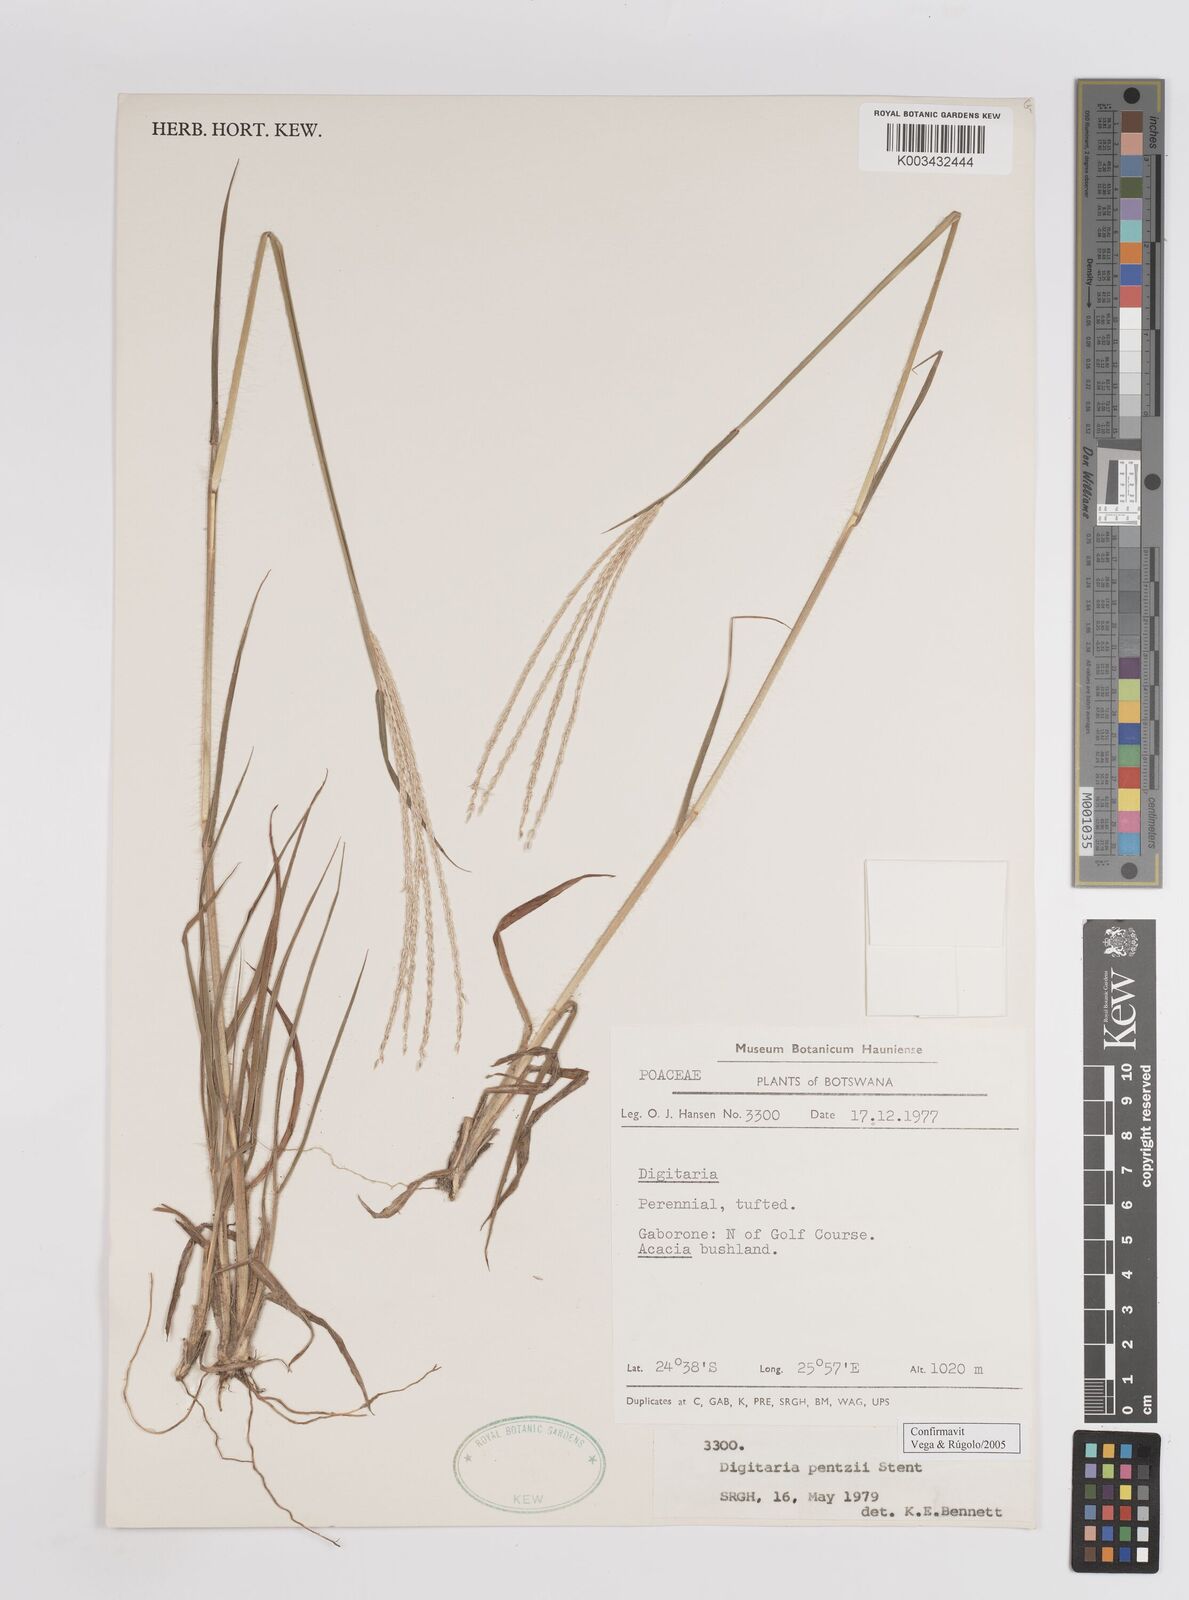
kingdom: Plantae
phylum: Tracheophyta
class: Liliopsida
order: Poales
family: Poaceae
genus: Digitaria
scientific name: Digitaria eriantha
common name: Digitgrass
